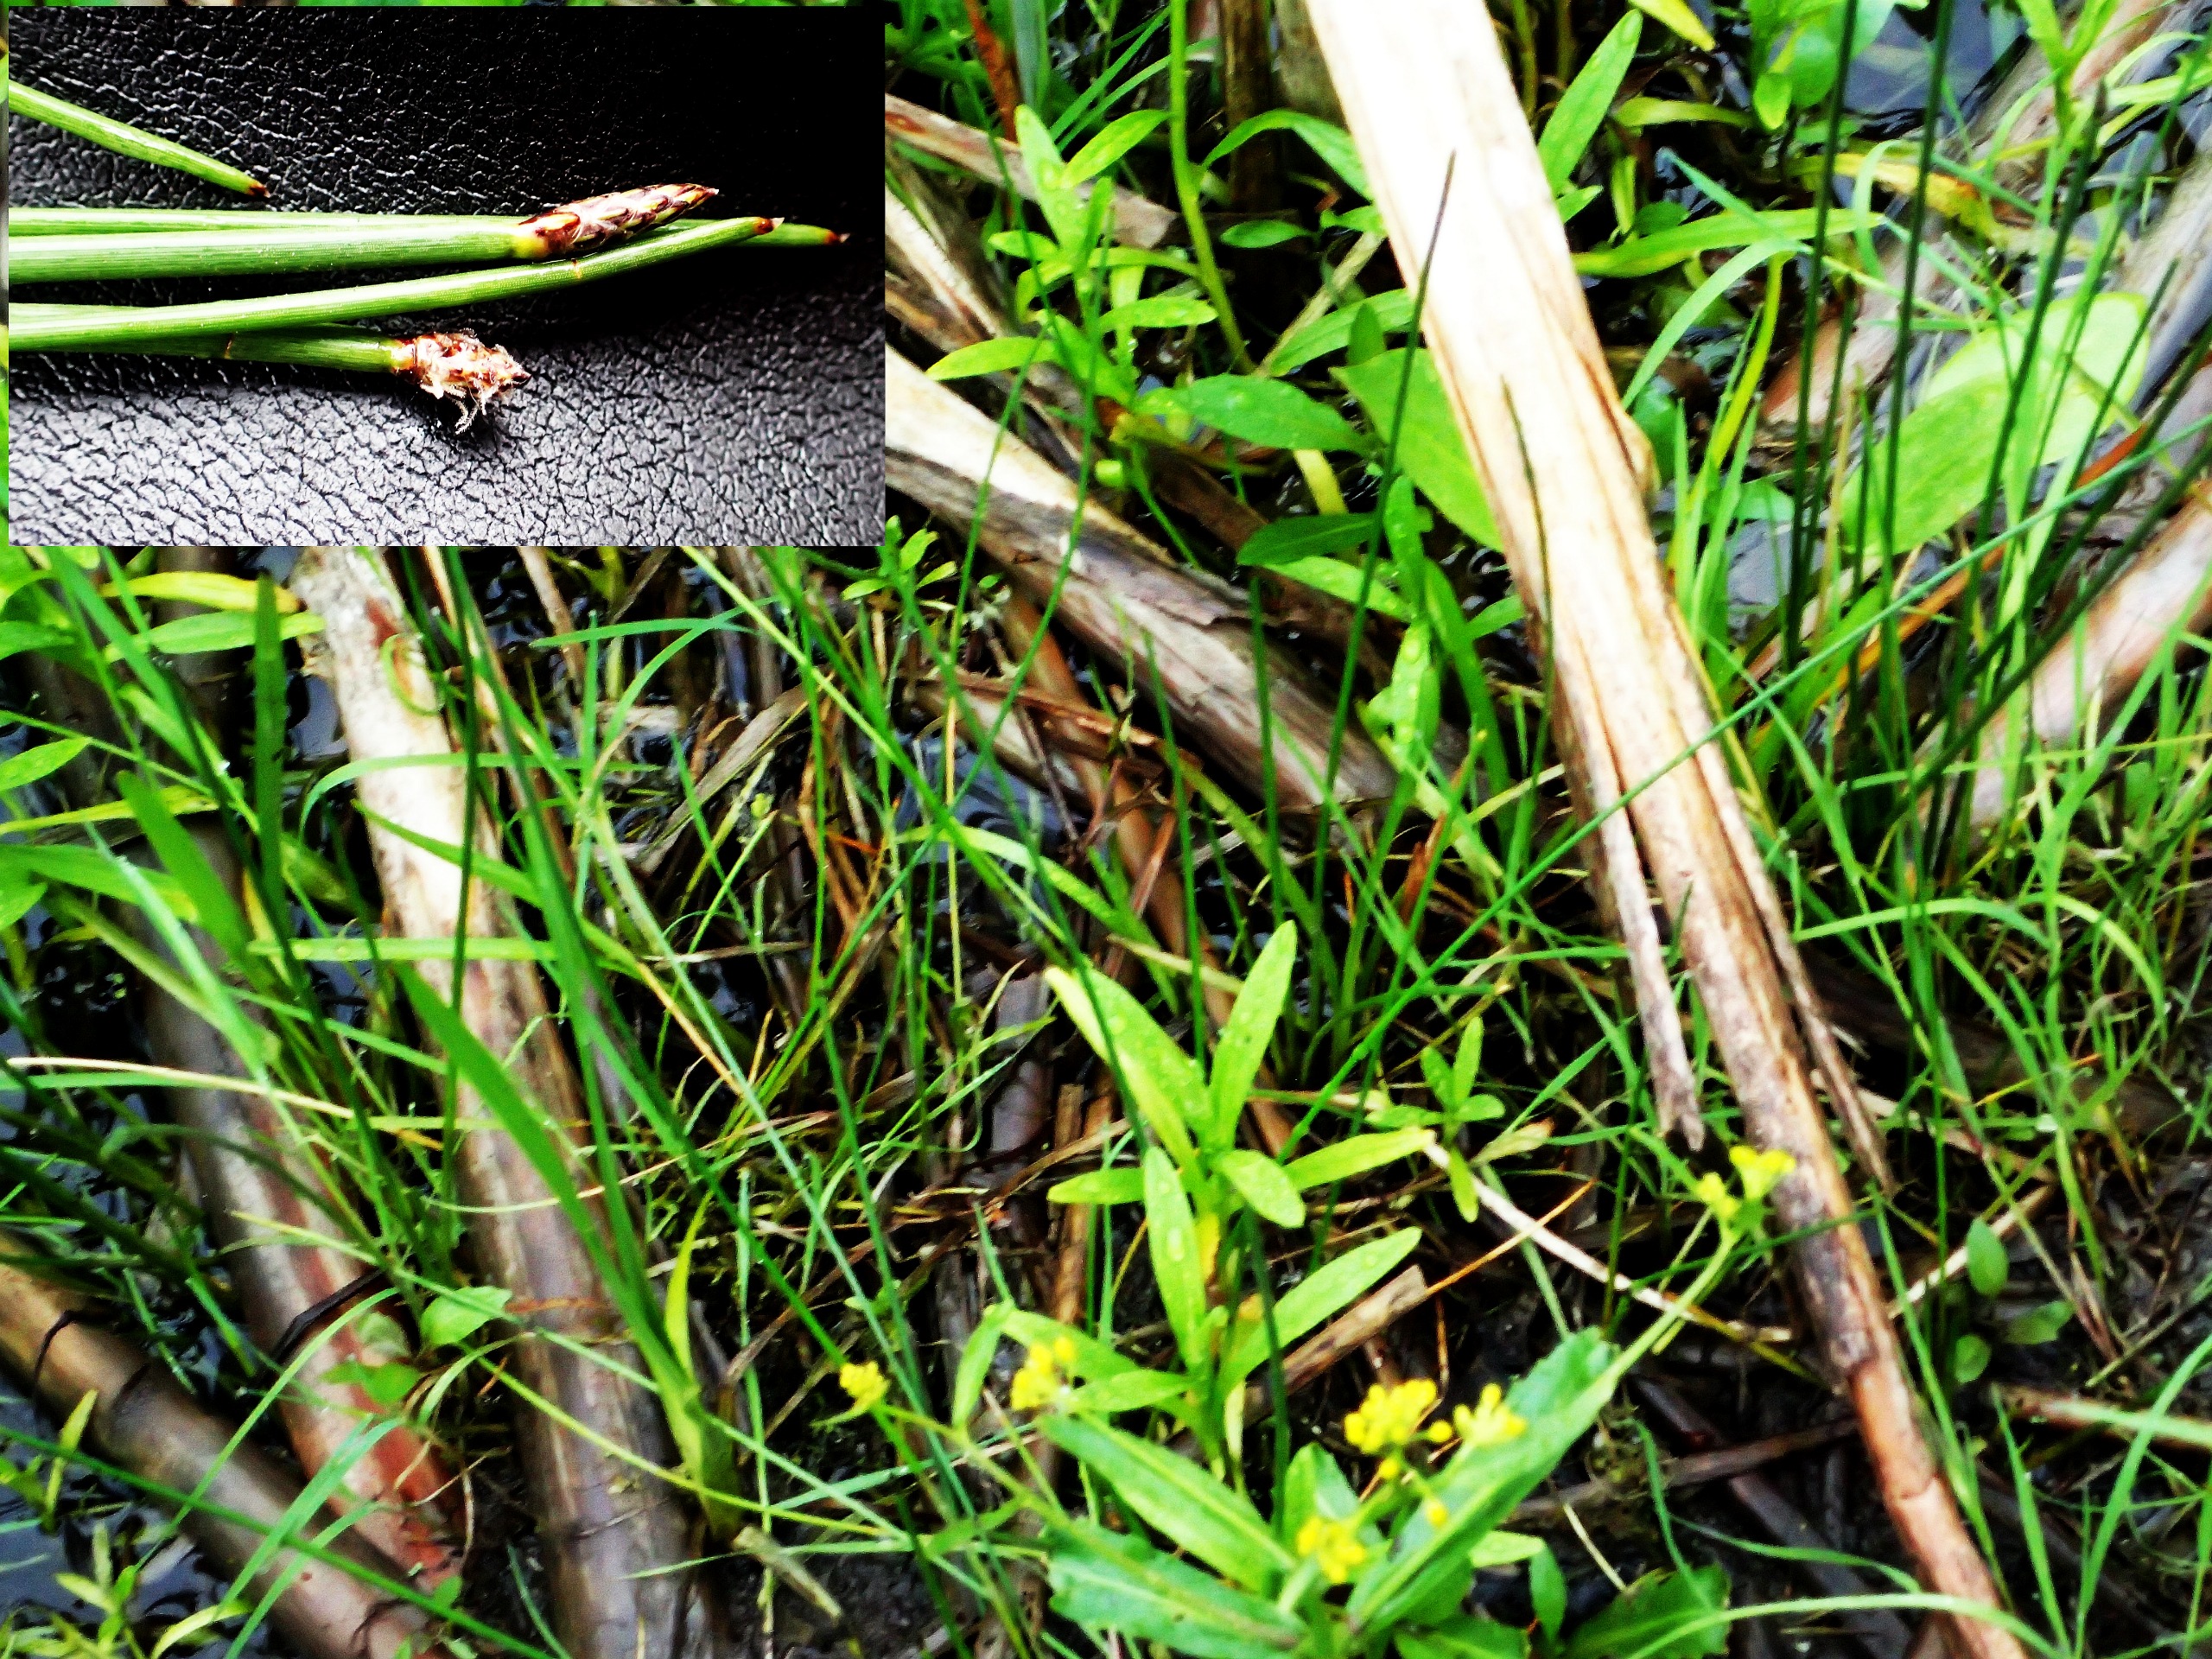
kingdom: Plantae
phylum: Tracheophyta
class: Liliopsida
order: Poales
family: Cyperaceae
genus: Eleocharis
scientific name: Eleocharis palustris
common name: Almindelig sumpstrå
